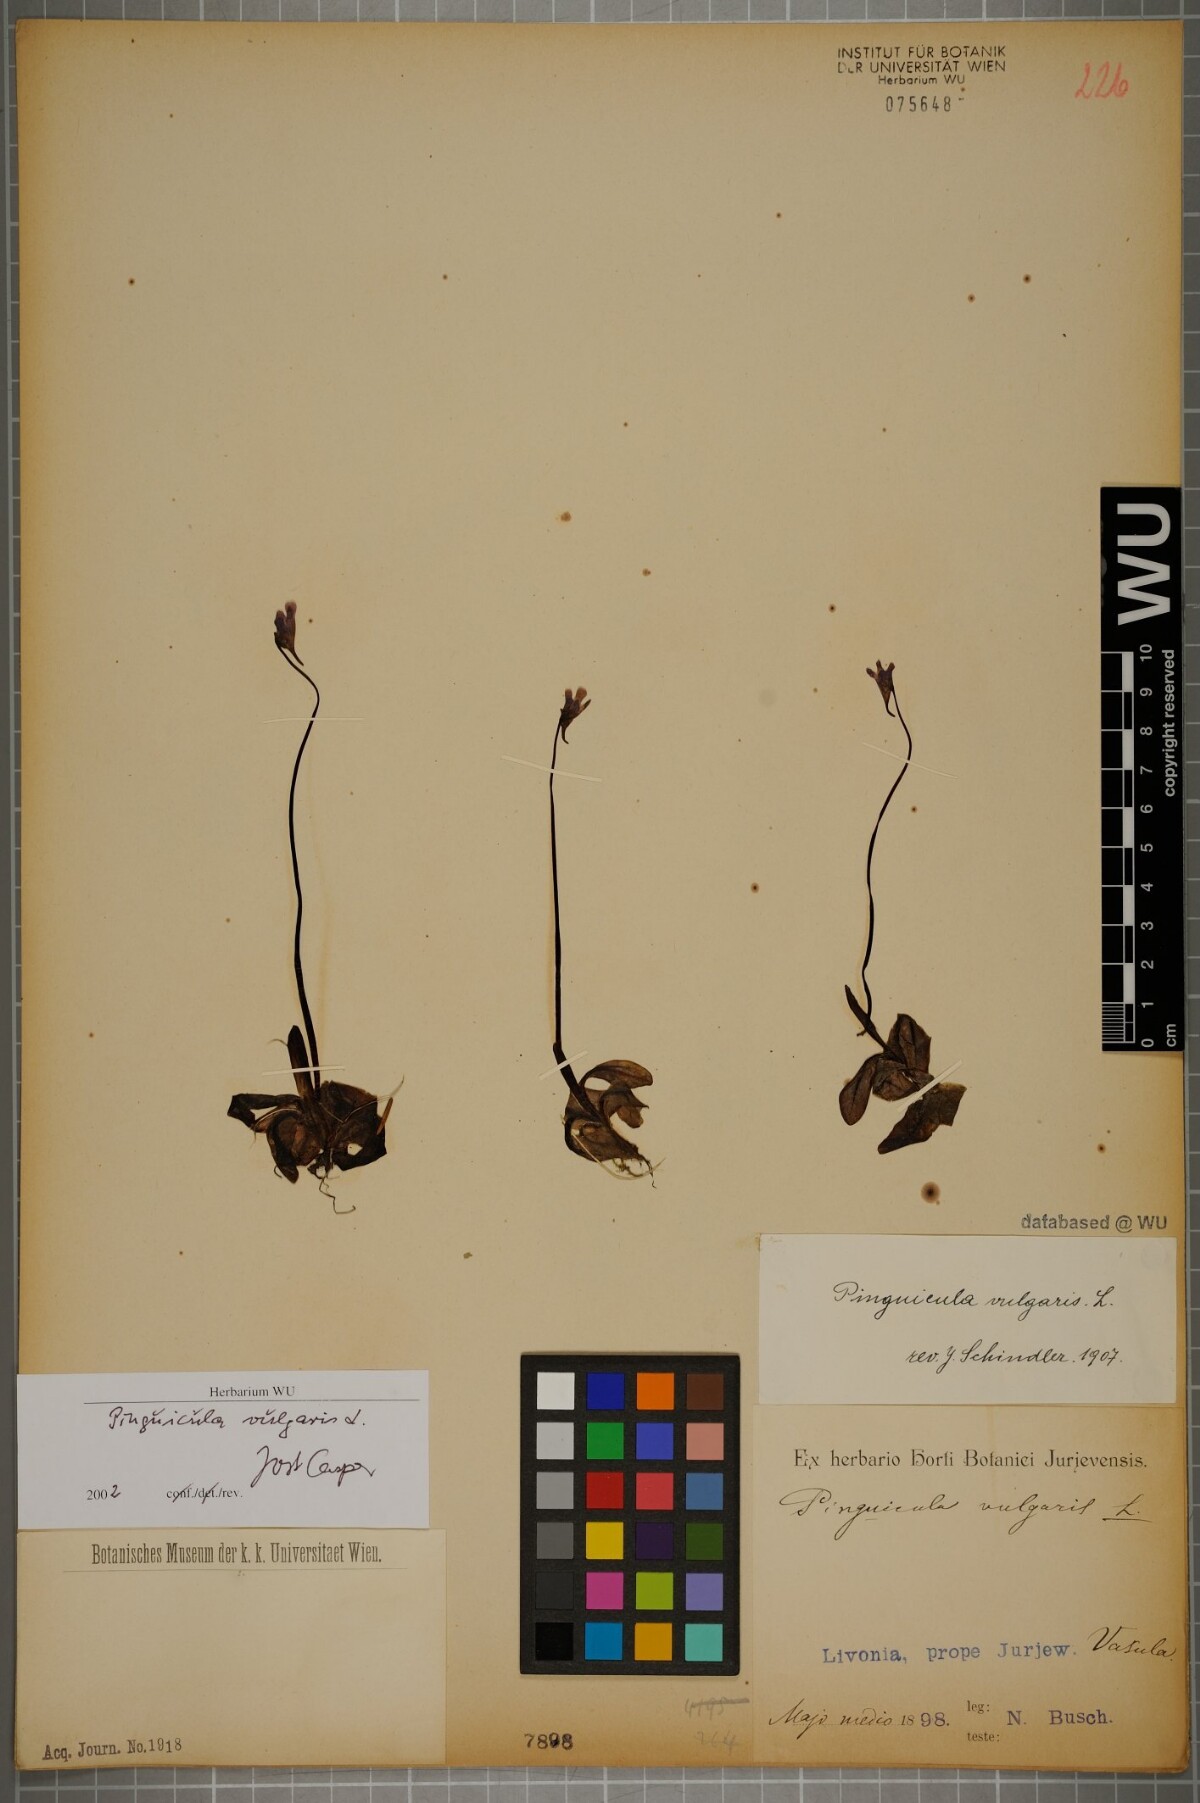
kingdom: Plantae
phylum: Tracheophyta
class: Magnoliopsida
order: Lamiales
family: Lentibulariaceae
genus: Pinguicula
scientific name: Pinguicula vulgaris
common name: Common butterwort
